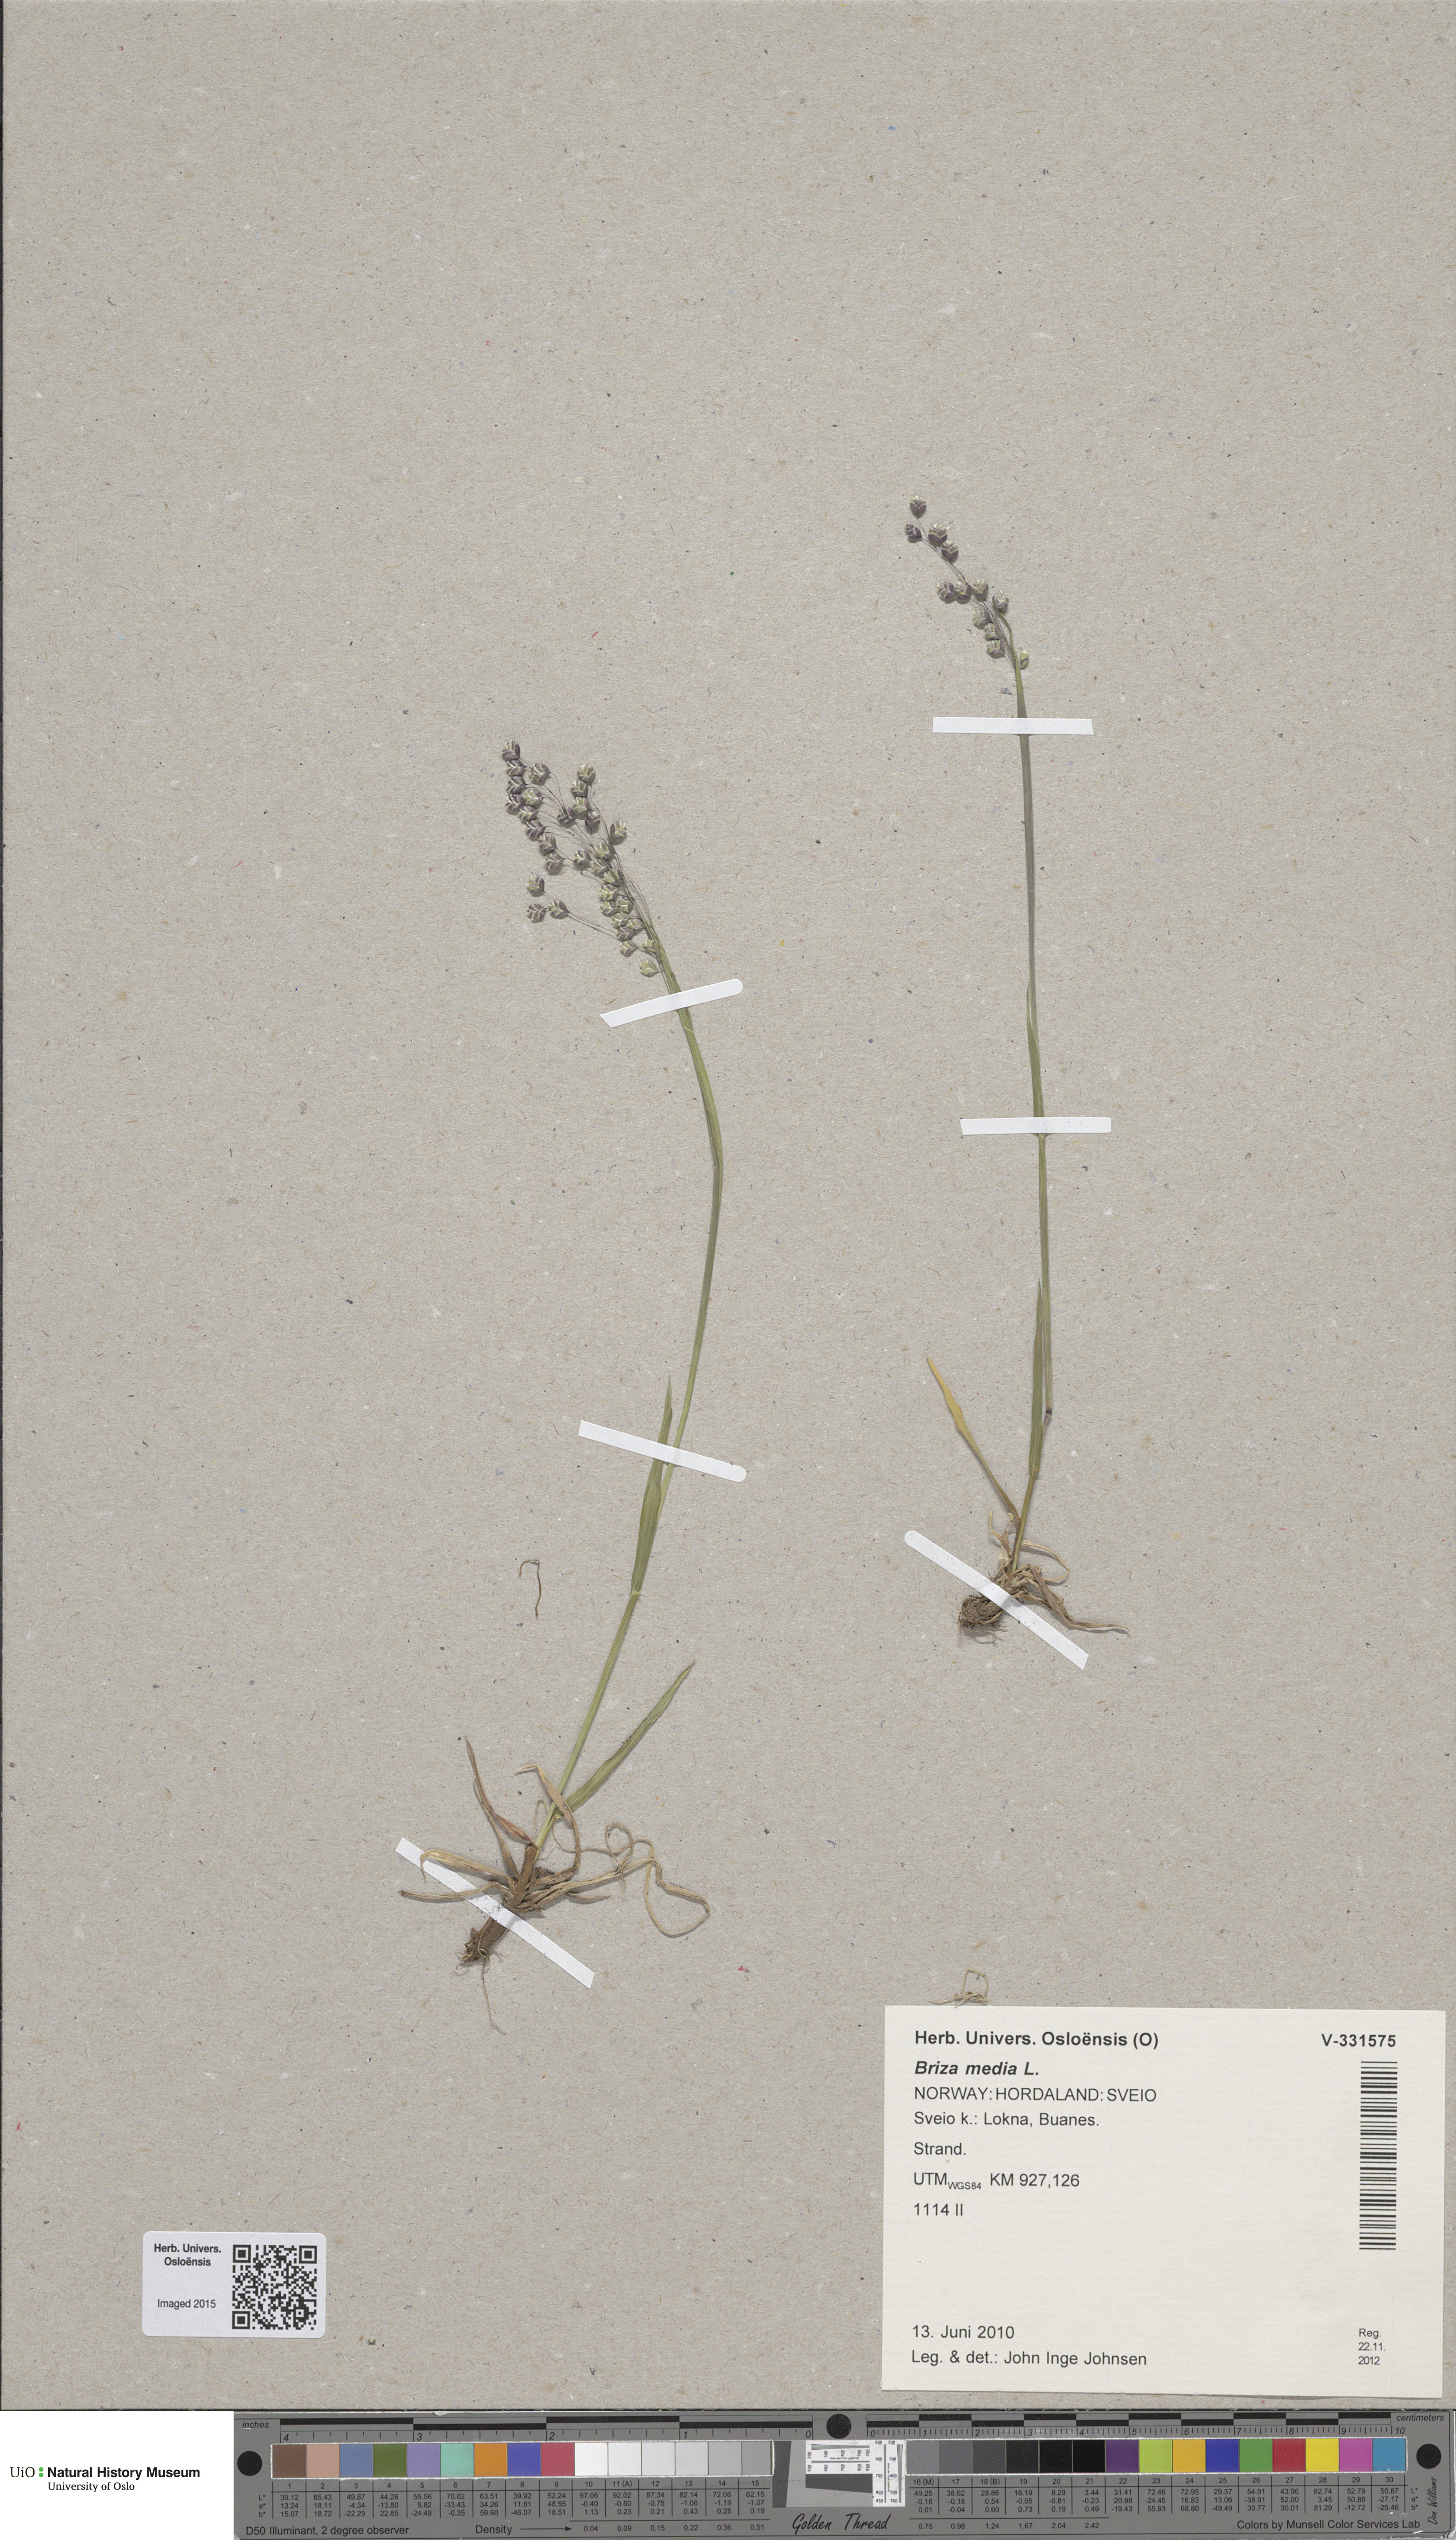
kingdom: Plantae
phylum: Tracheophyta
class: Liliopsida
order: Poales
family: Poaceae
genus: Briza
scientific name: Briza media
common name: Quaking grass
